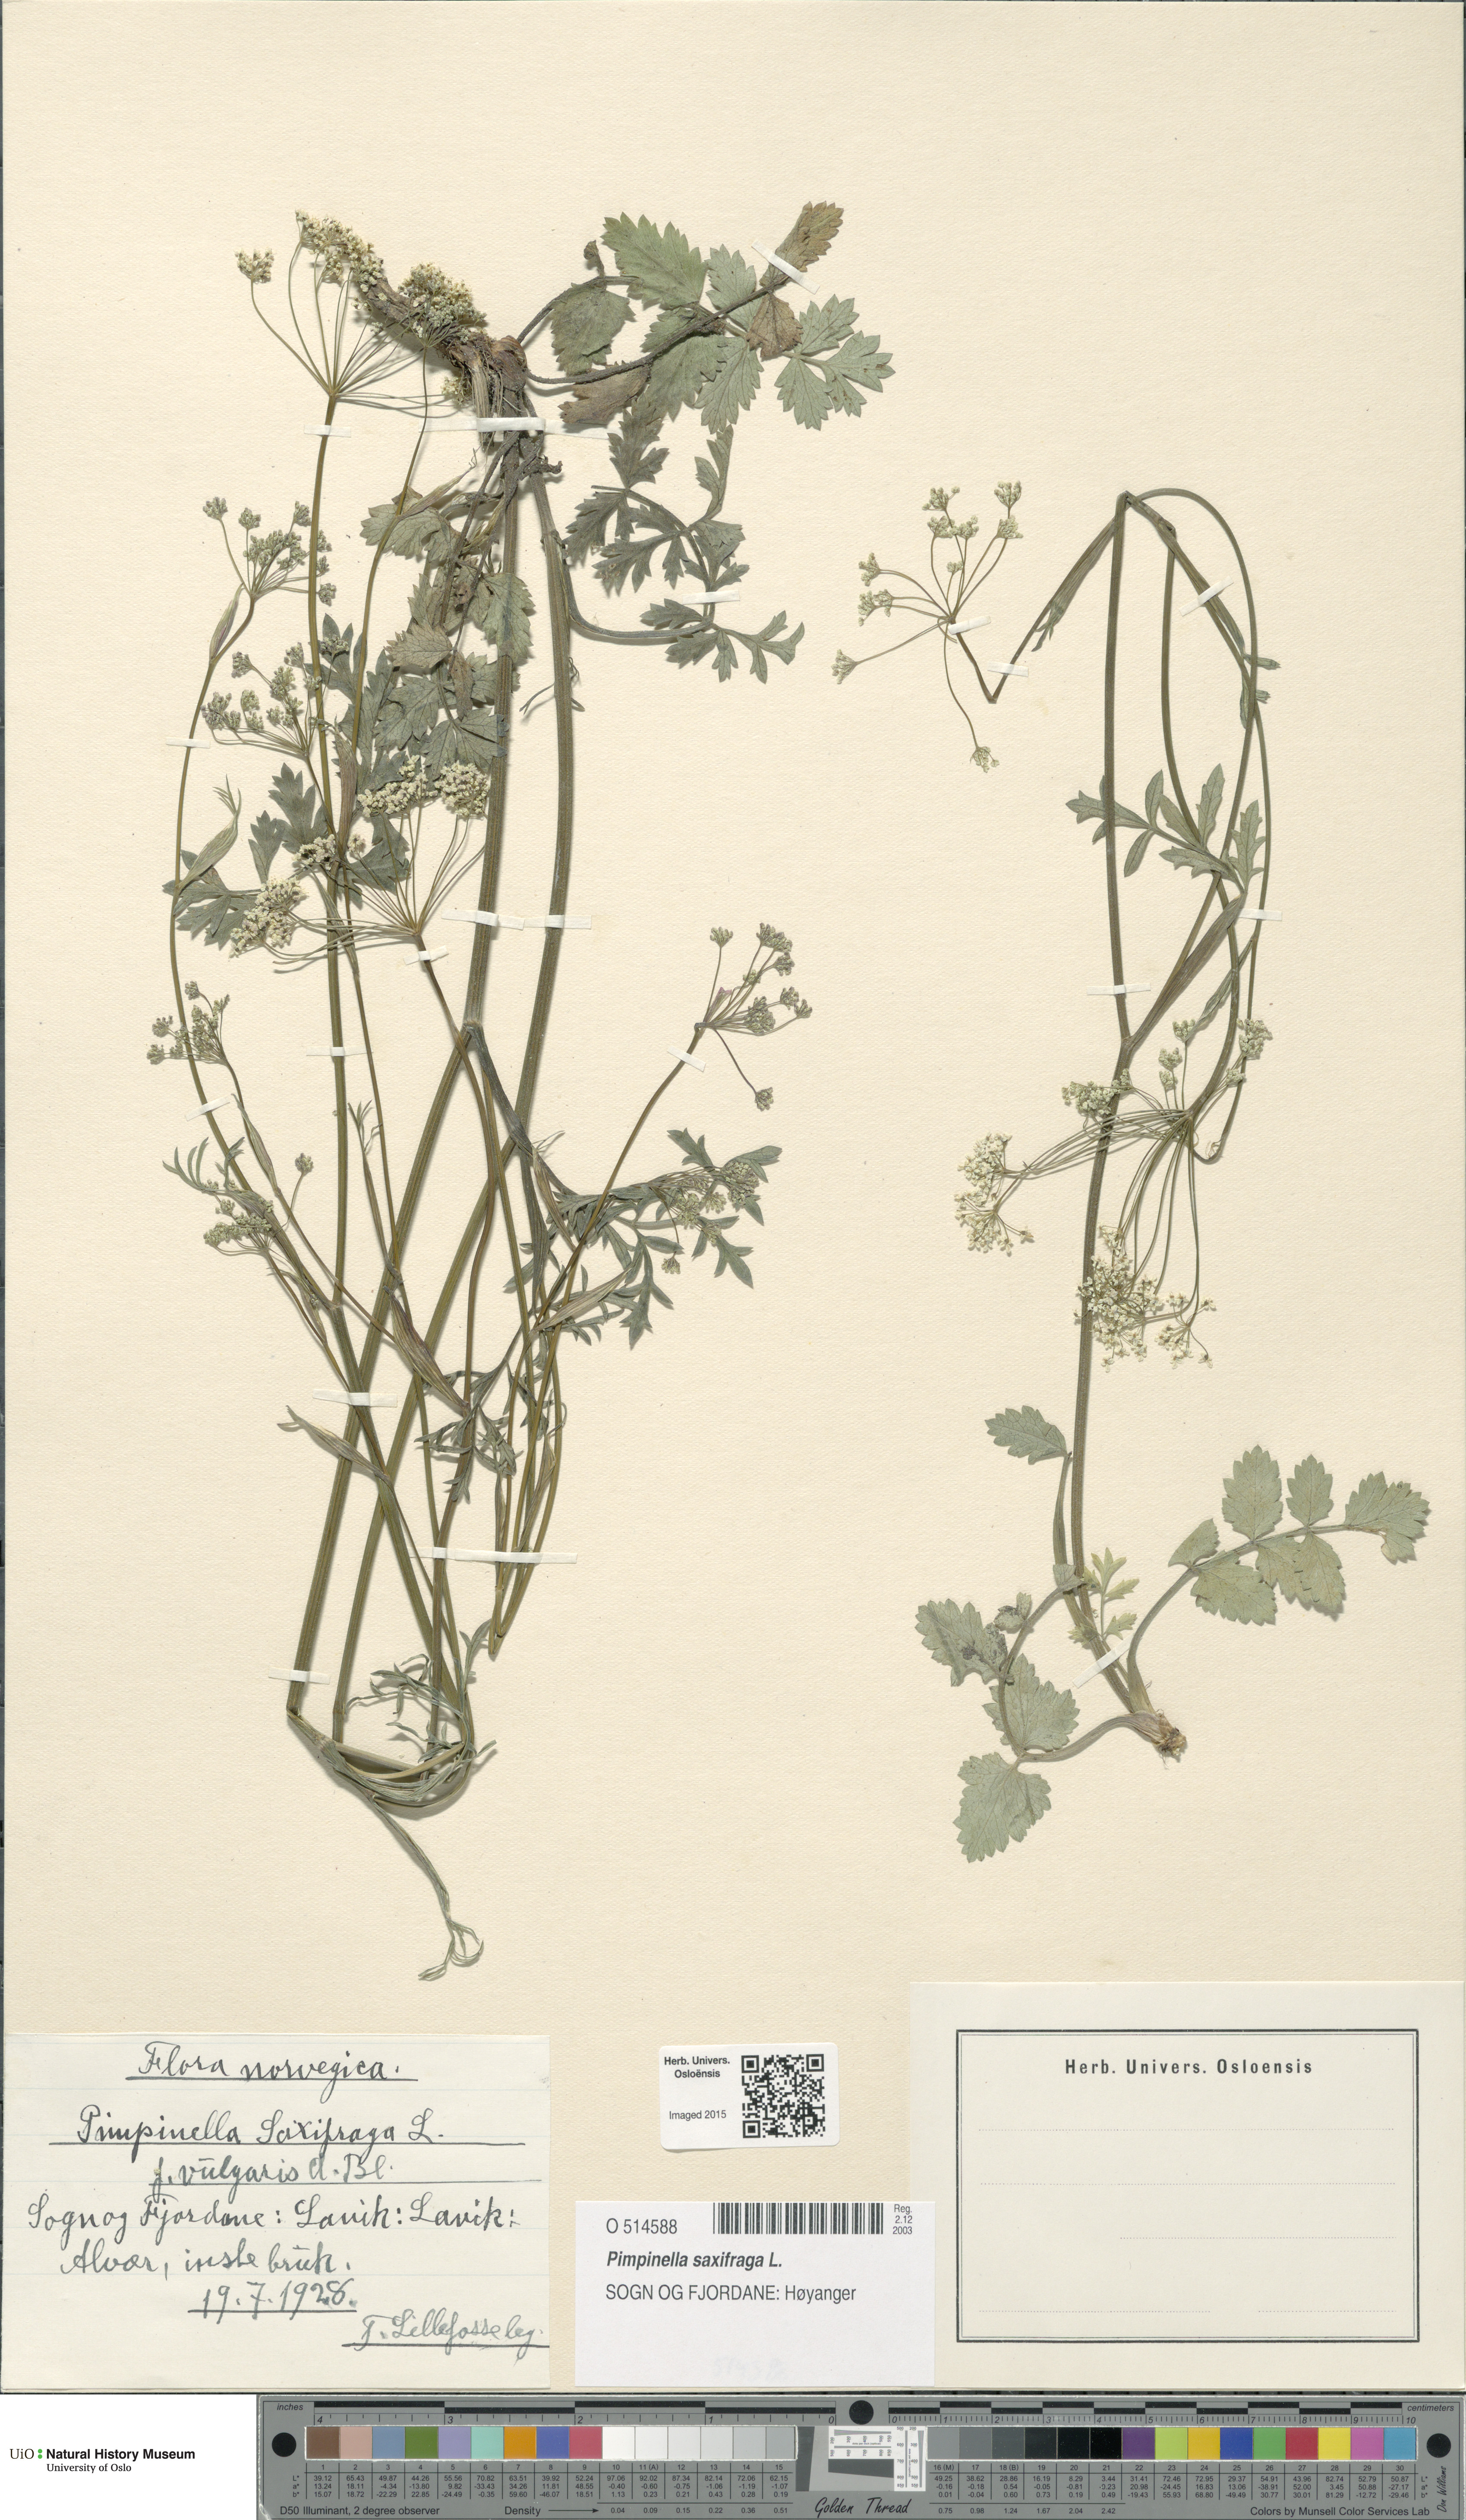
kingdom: Plantae
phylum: Tracheophyta
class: Magnoliopsida
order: Apiales
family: Apiaceae
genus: Pimpinella
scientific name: Pimpinella saxifraga
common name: Burnet-saxifrage
